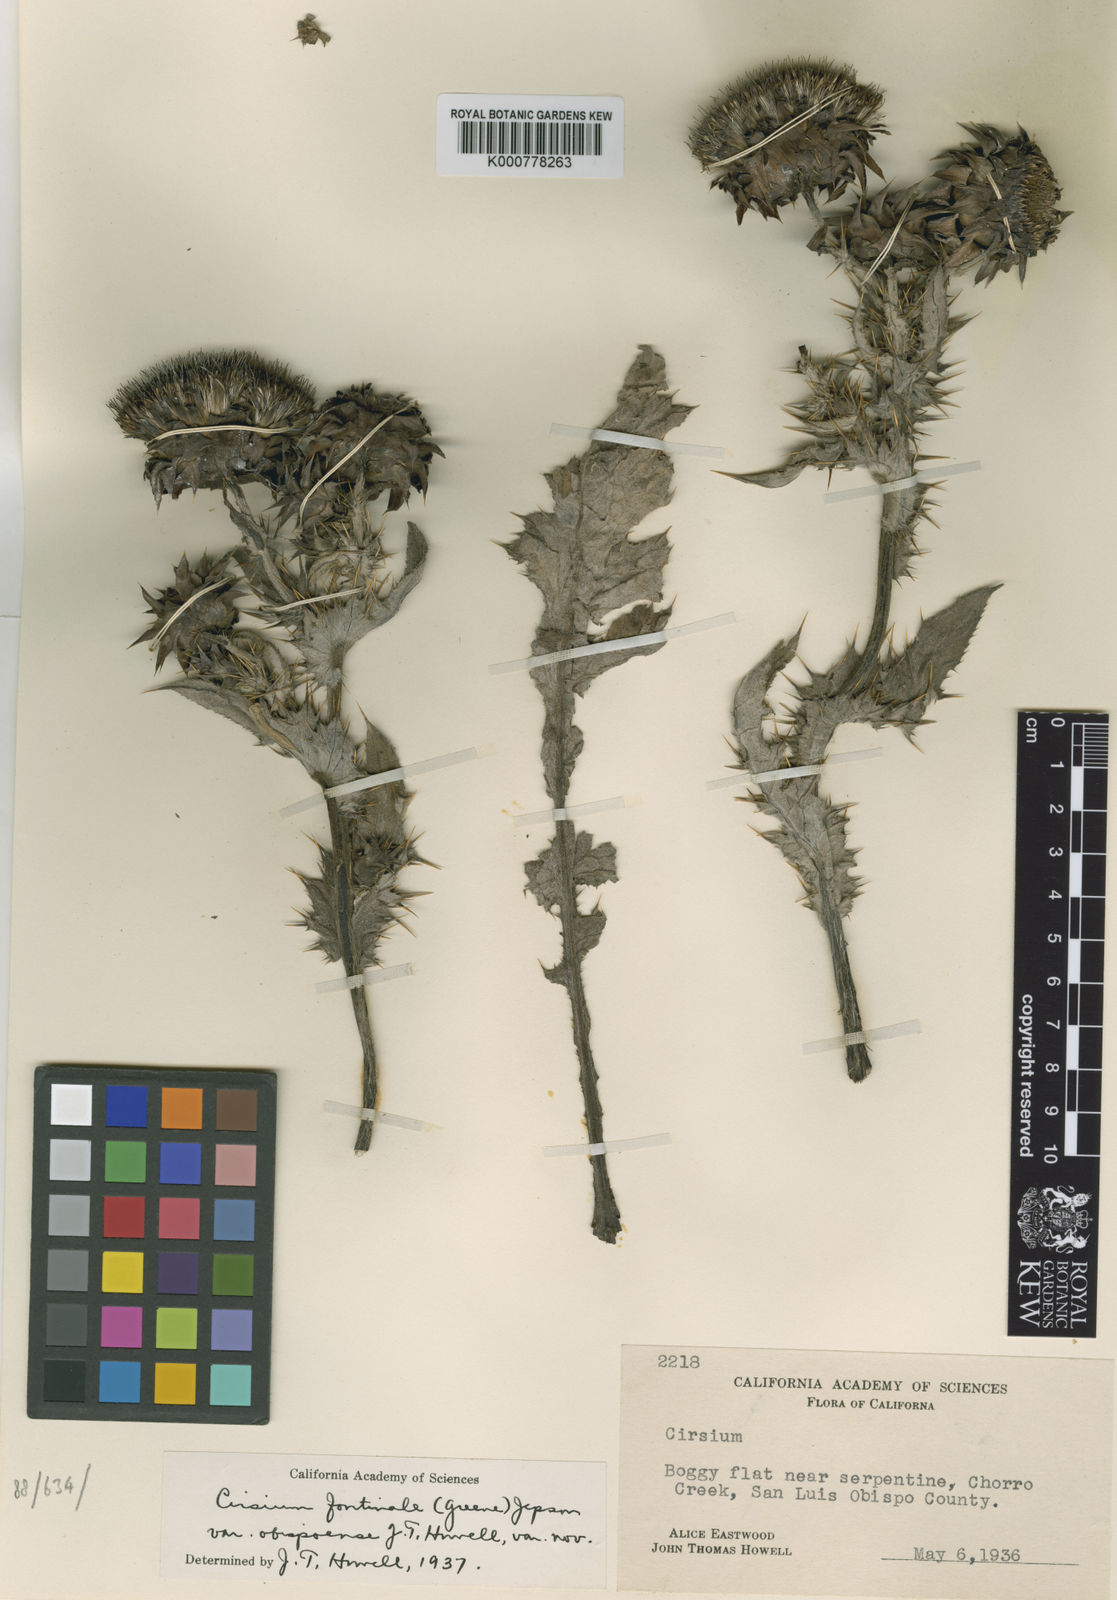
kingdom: Plantae
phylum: Tracheophyta
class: Magnoliopsida
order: Asterales
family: Asteraceae
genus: Cirsium
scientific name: Cirsium fontinale
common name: Fountain thistle
